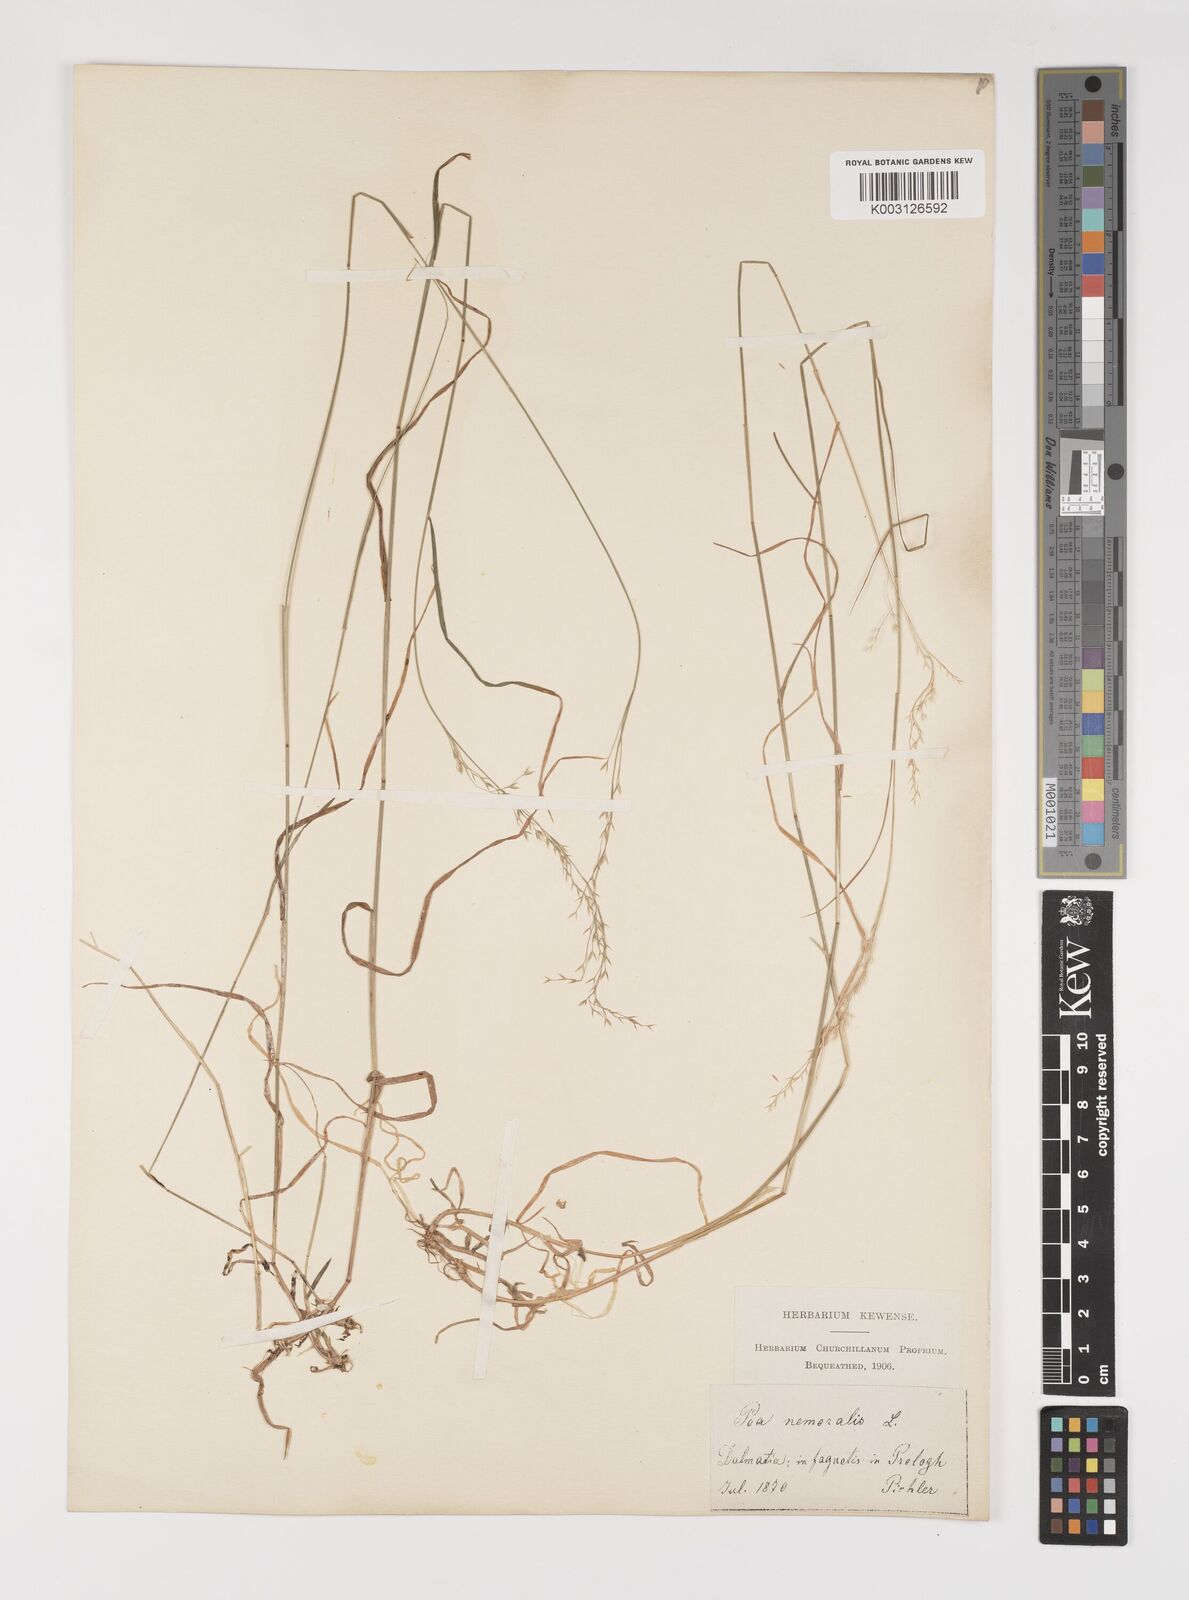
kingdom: Plantae
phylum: Tracheophyta
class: Liliopsida
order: Poales
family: Poaceae
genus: Poa
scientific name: Poa nemoralis
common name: Wood bluegrass
